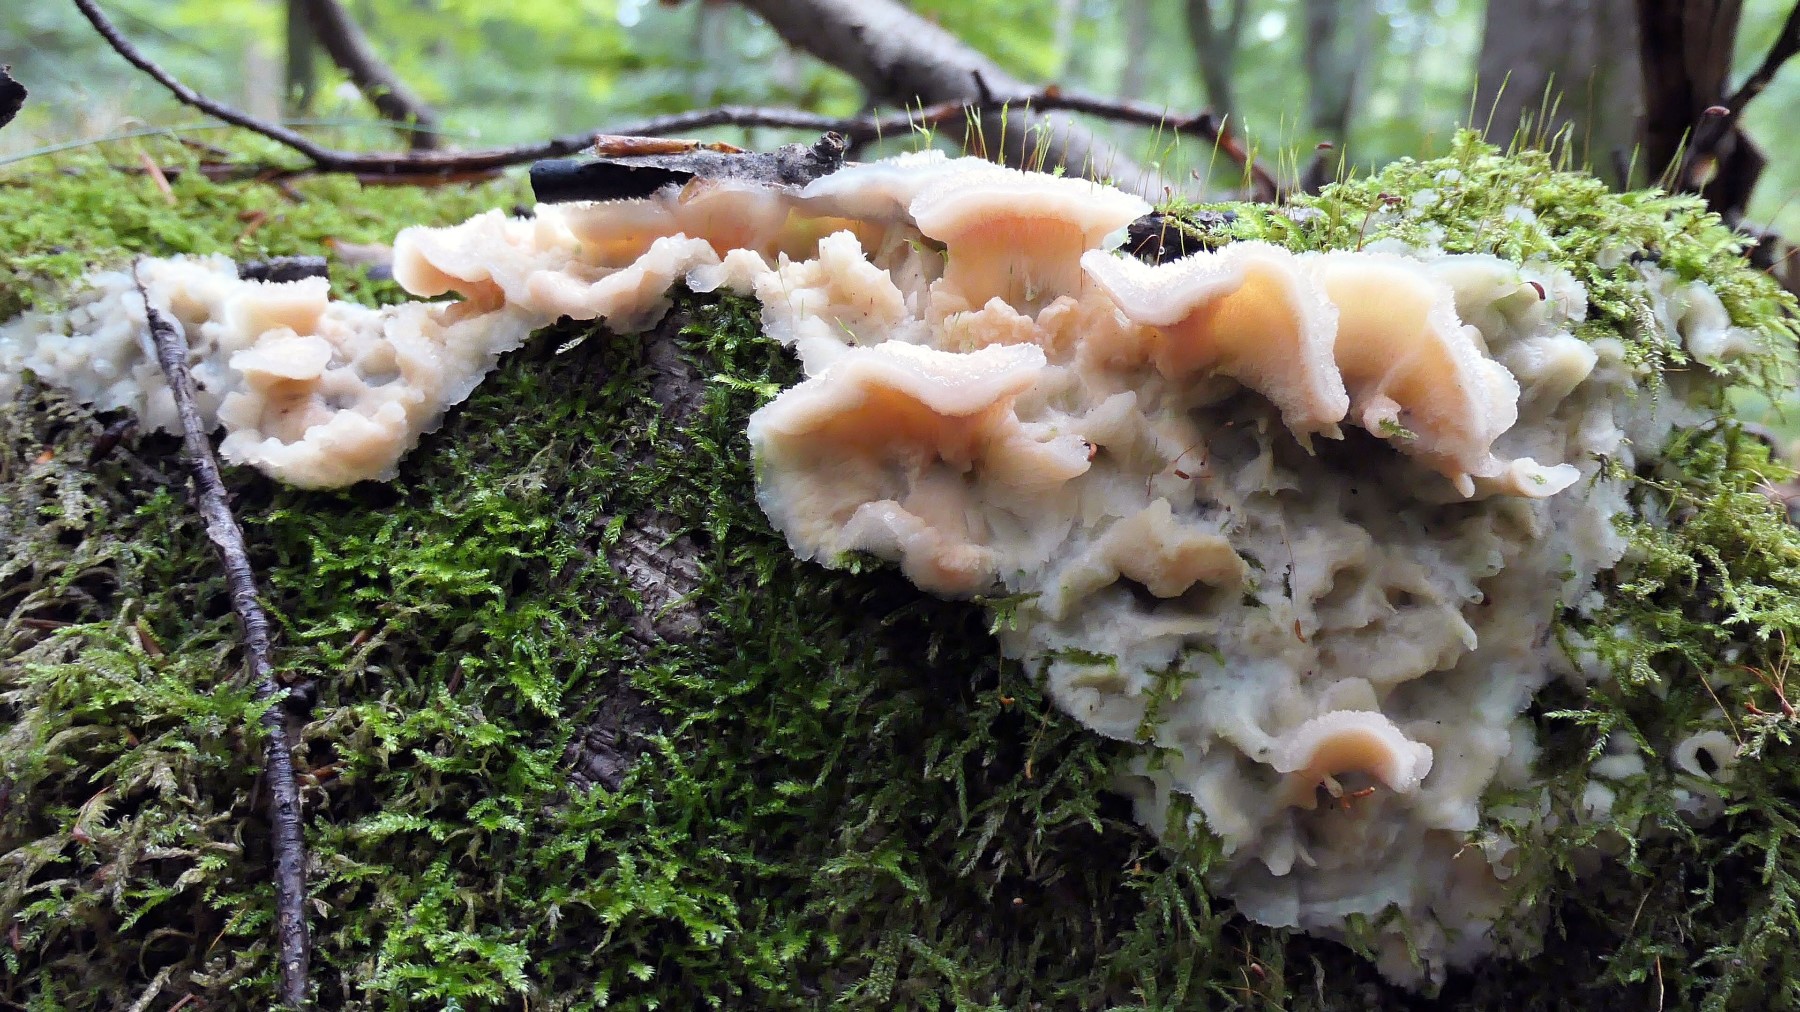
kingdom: Fungi
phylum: Basidiomycota
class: Agaricomycetes
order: Polyporales
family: Meruliaceae
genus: Phlebia
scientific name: Phlebia tremellosa
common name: bævrende åresvamp
